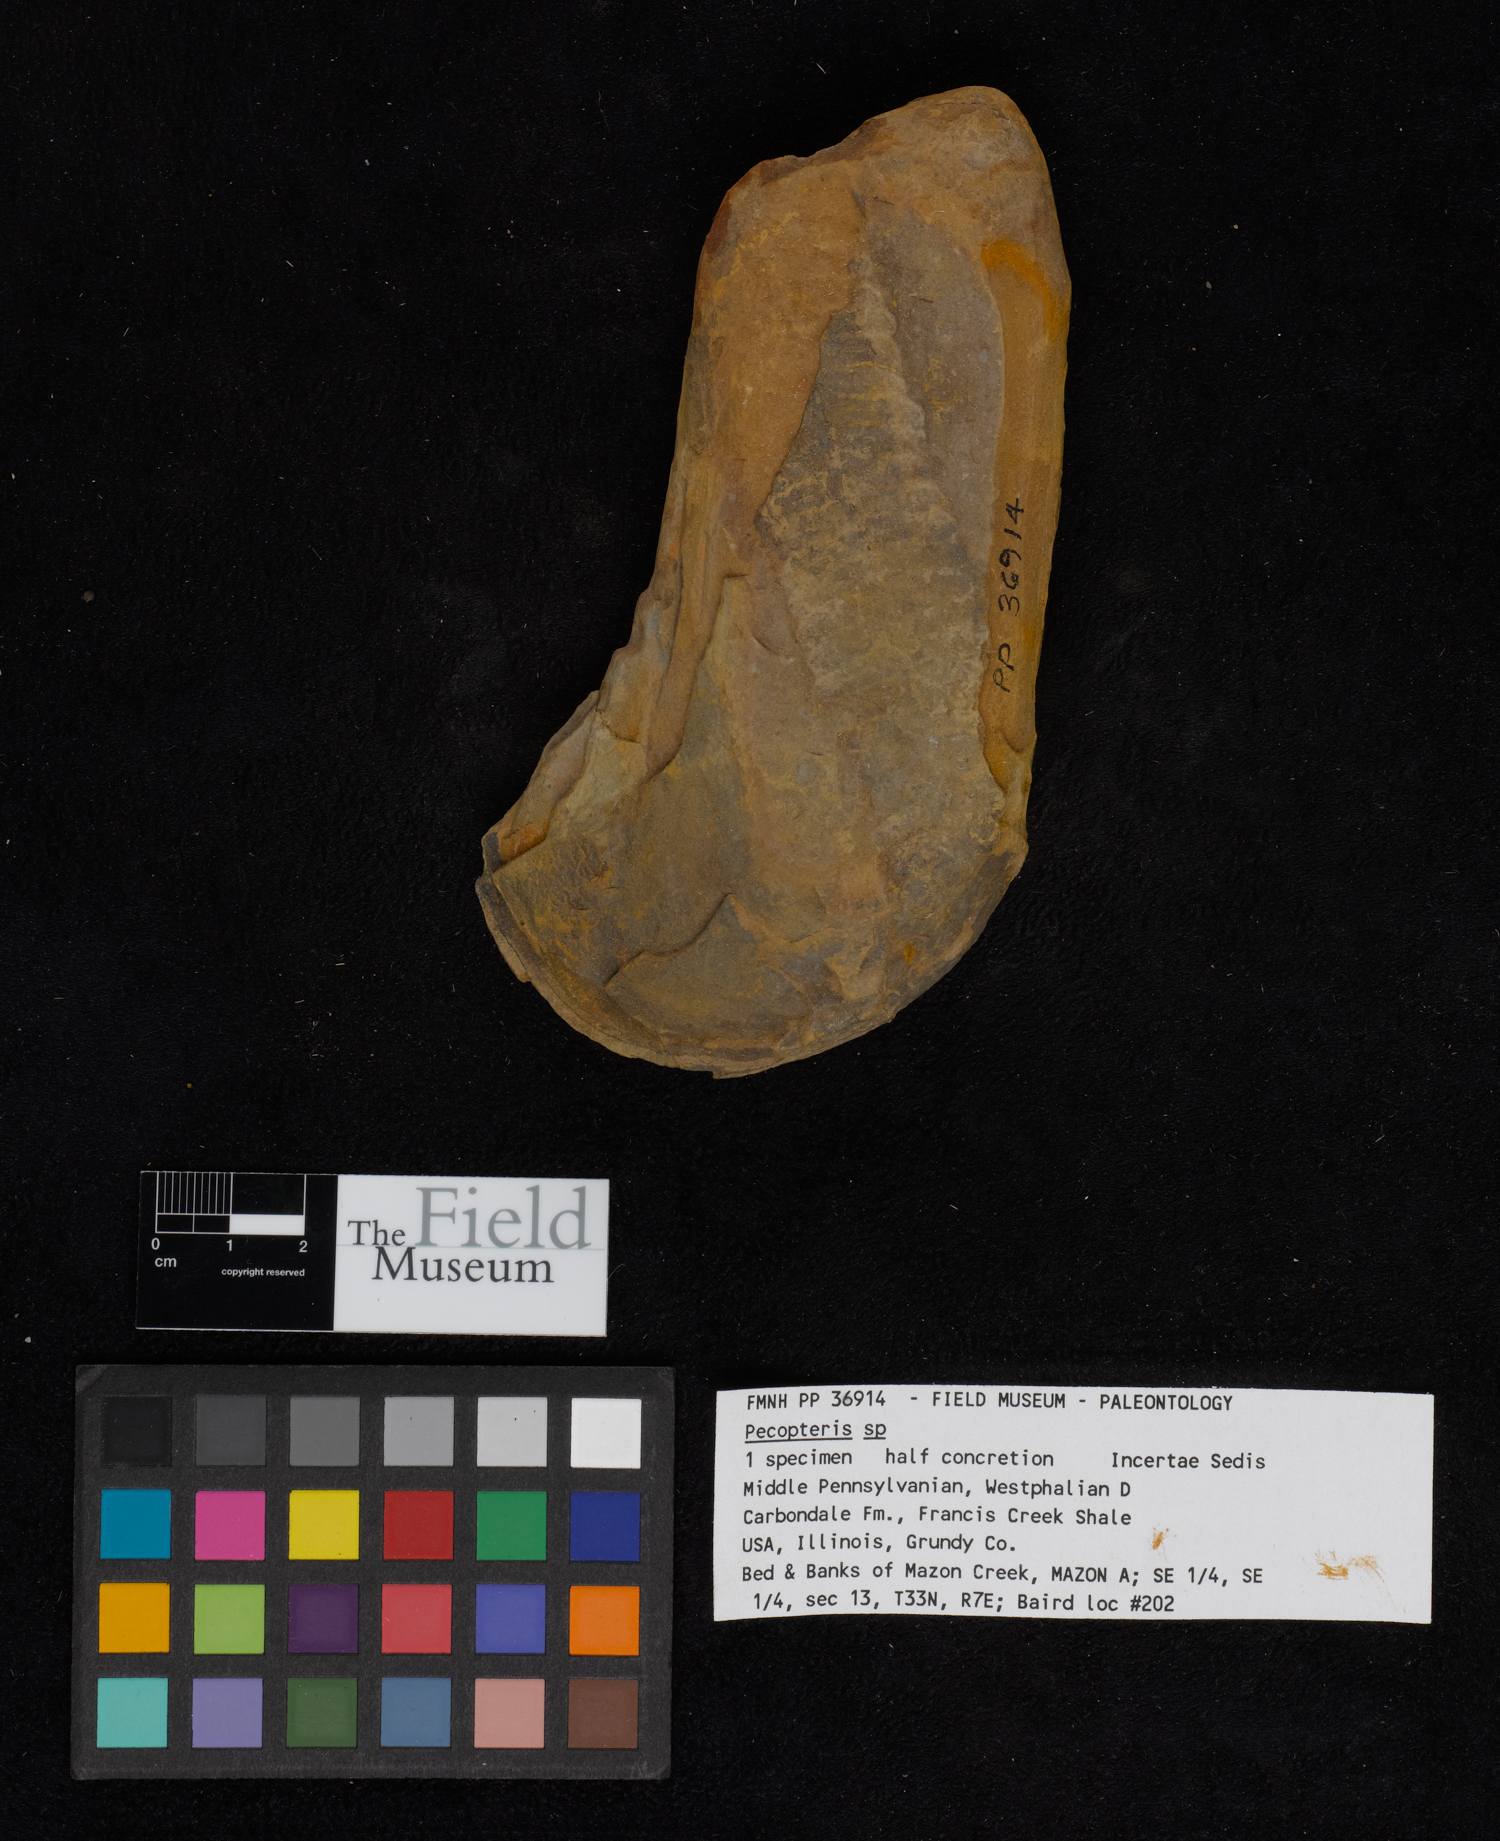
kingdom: Plantae
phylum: Tracheophyta
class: Polypodiopsida
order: Marattiales
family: Asterothecaceae
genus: Pecopteris
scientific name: Pecopteris
